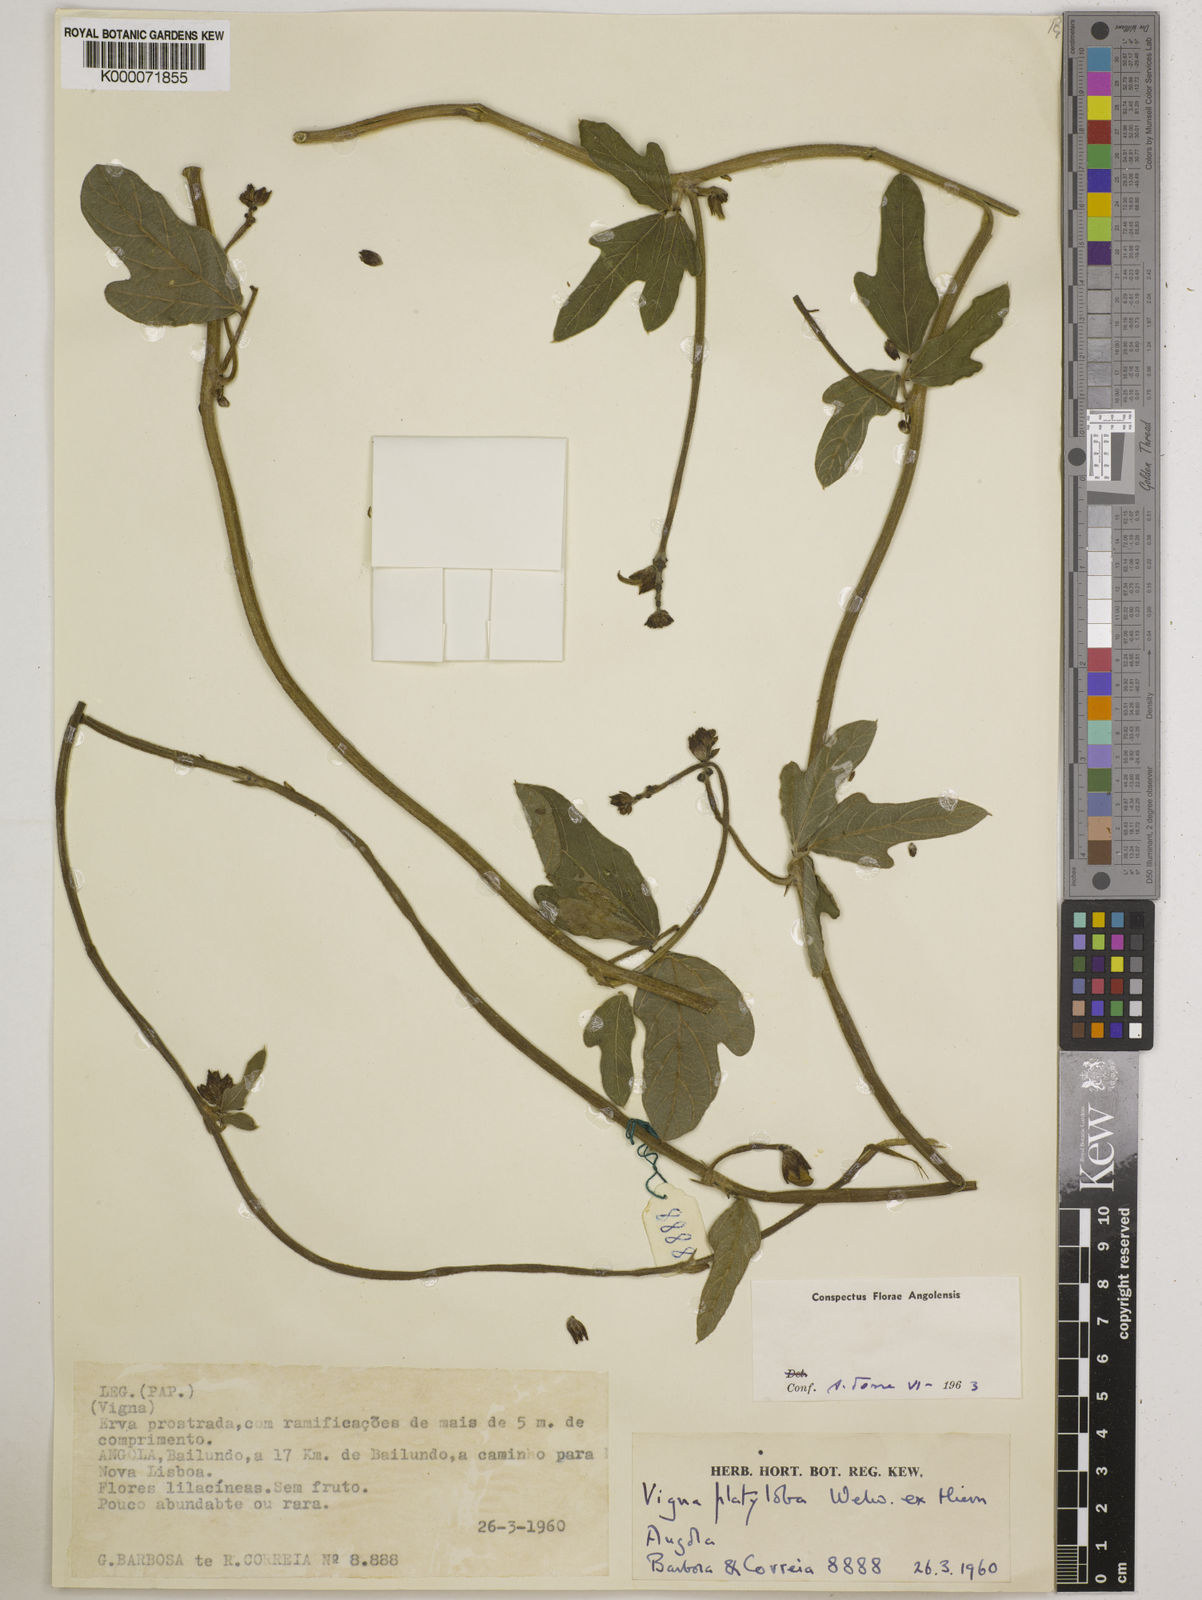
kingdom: Plantae
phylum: Tracheophyta
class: Magnoliopsida
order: Fabales
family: Fabaceae
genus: Vigna
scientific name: Vigna platyloba
